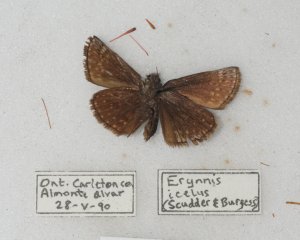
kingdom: Animalia
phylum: Arthropoda
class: Insecta
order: Lepidoptera
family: Hesperiidae
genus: Erynnis
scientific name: Erynnis icelus
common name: Dreamy Duskywing
